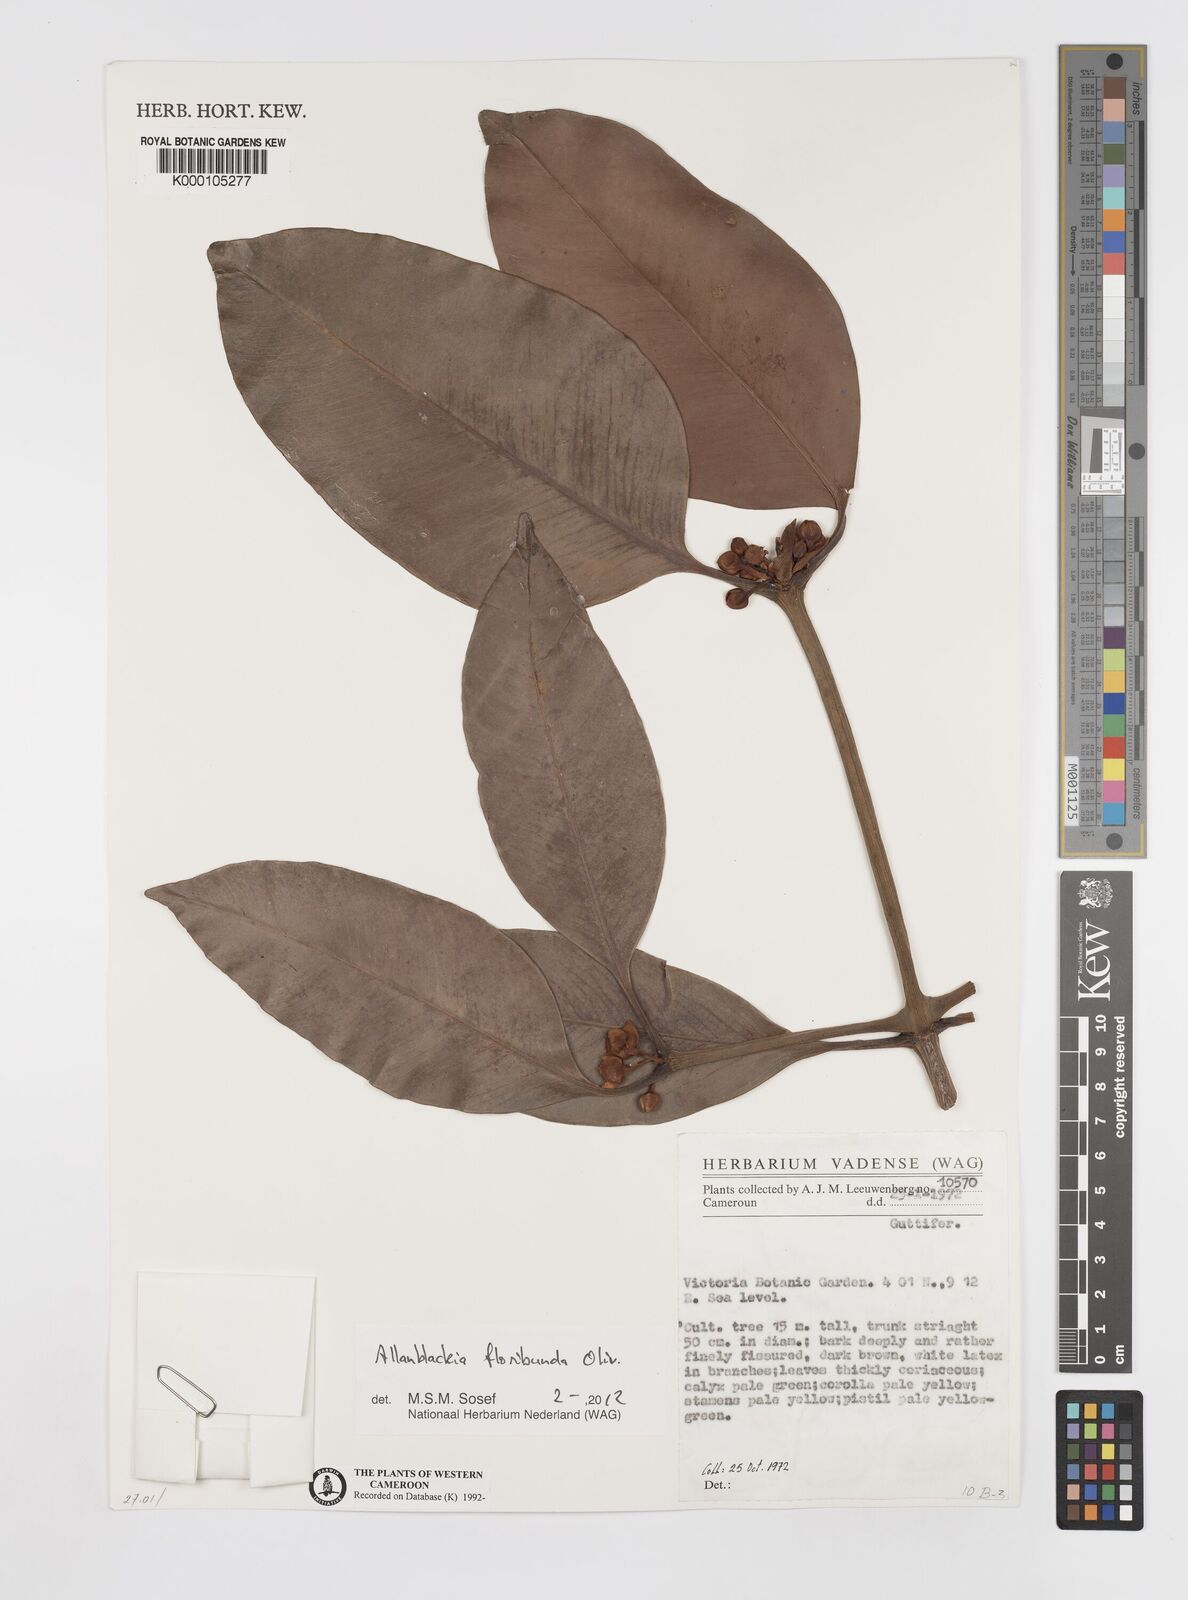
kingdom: Plantae
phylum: Tracheophyta
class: Magnoliopsida
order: Malpighiales
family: Clusiaceae
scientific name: Clusiaceae
